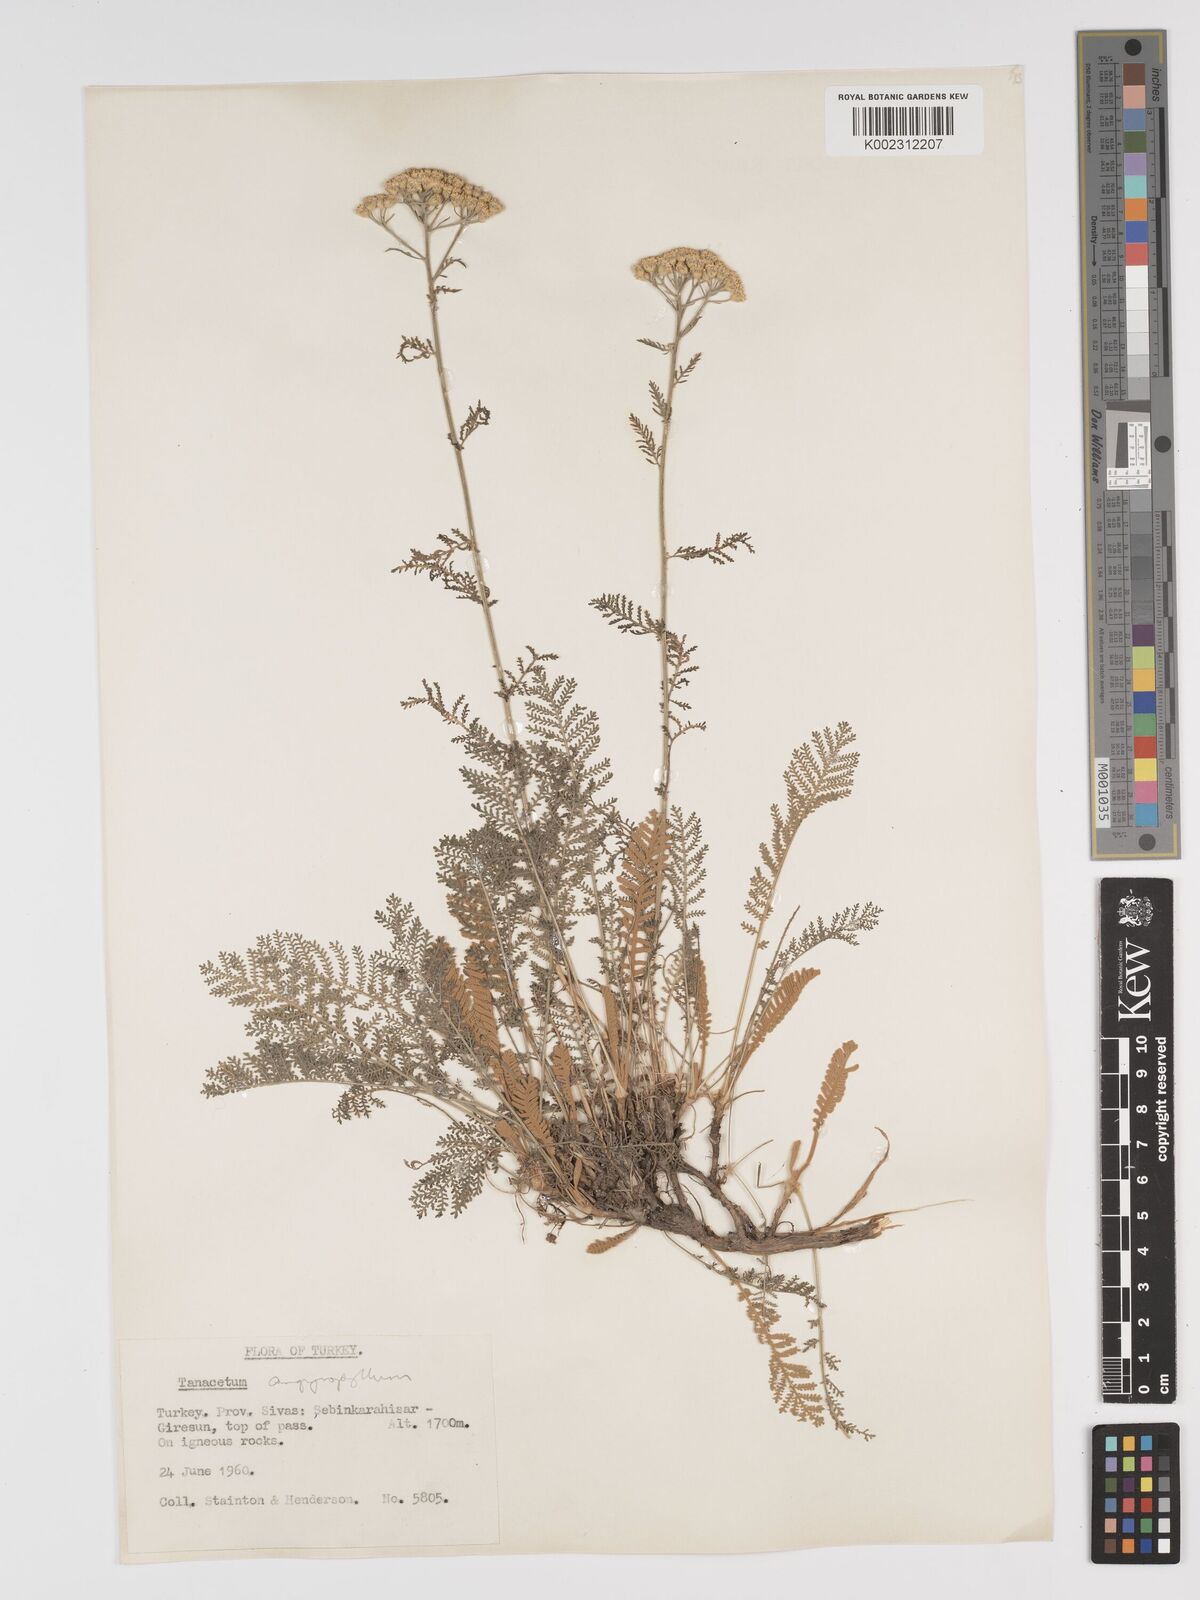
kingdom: Plantae
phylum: Tracheophyta
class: Magnoliopsida
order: Asterales
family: Asteraceae
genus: Tanacetum
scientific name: Tanacetum
